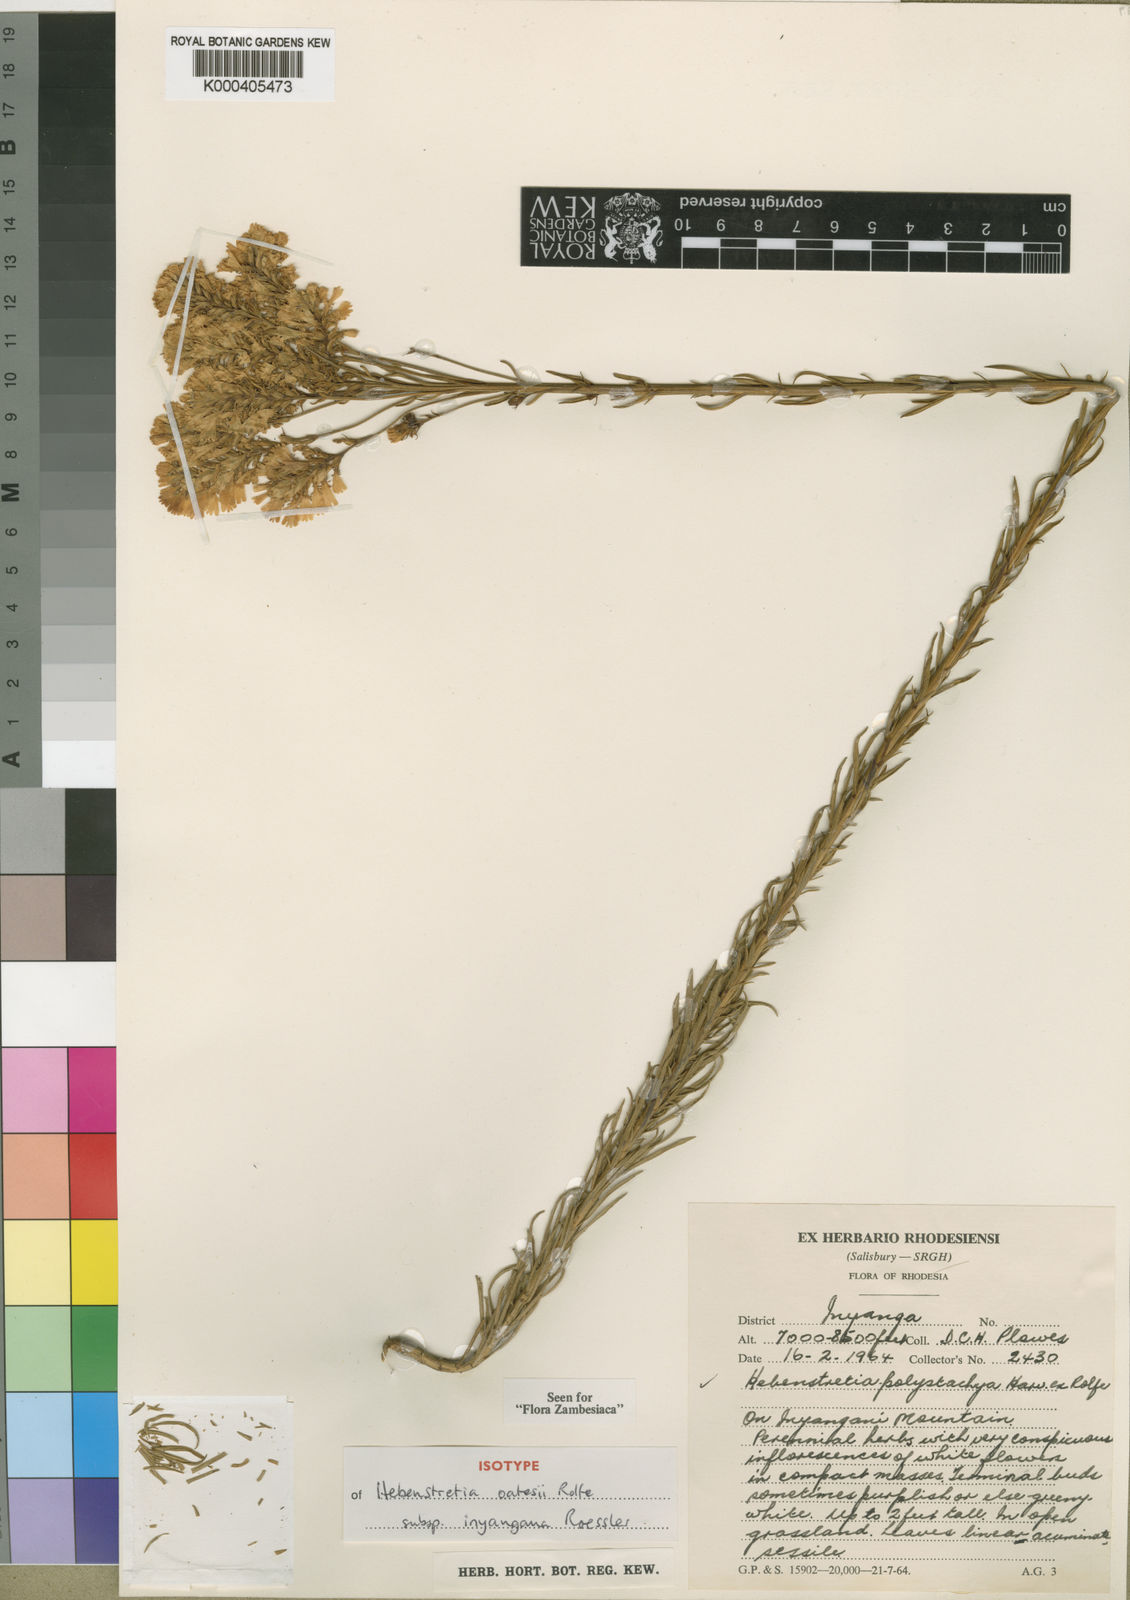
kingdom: Plantae
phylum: Tracheophyta
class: Magnoliopsida
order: Lamiales
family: Scrophulariaceae
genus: Hebenstretia
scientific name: Hebenstretia oatesii
